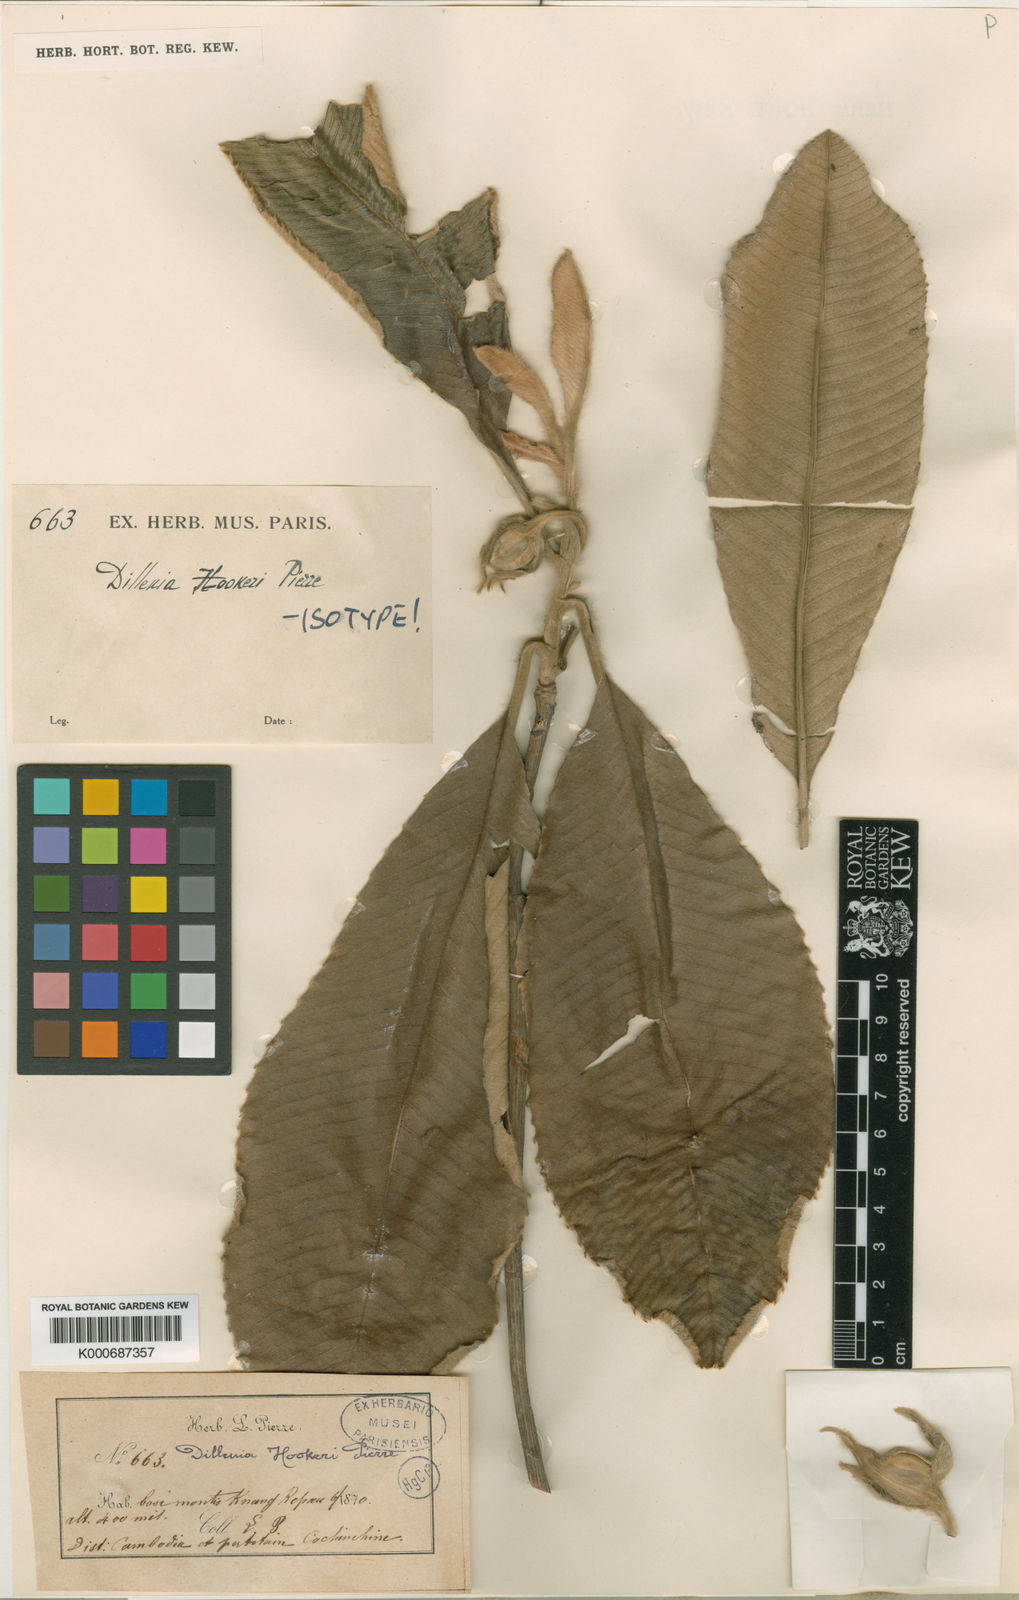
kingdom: Plantae
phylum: Tracheophyta
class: Magnoliopsida
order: Dilleniales
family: Dilleniaceae
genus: Dillenia
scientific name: Dillenia hookeri
